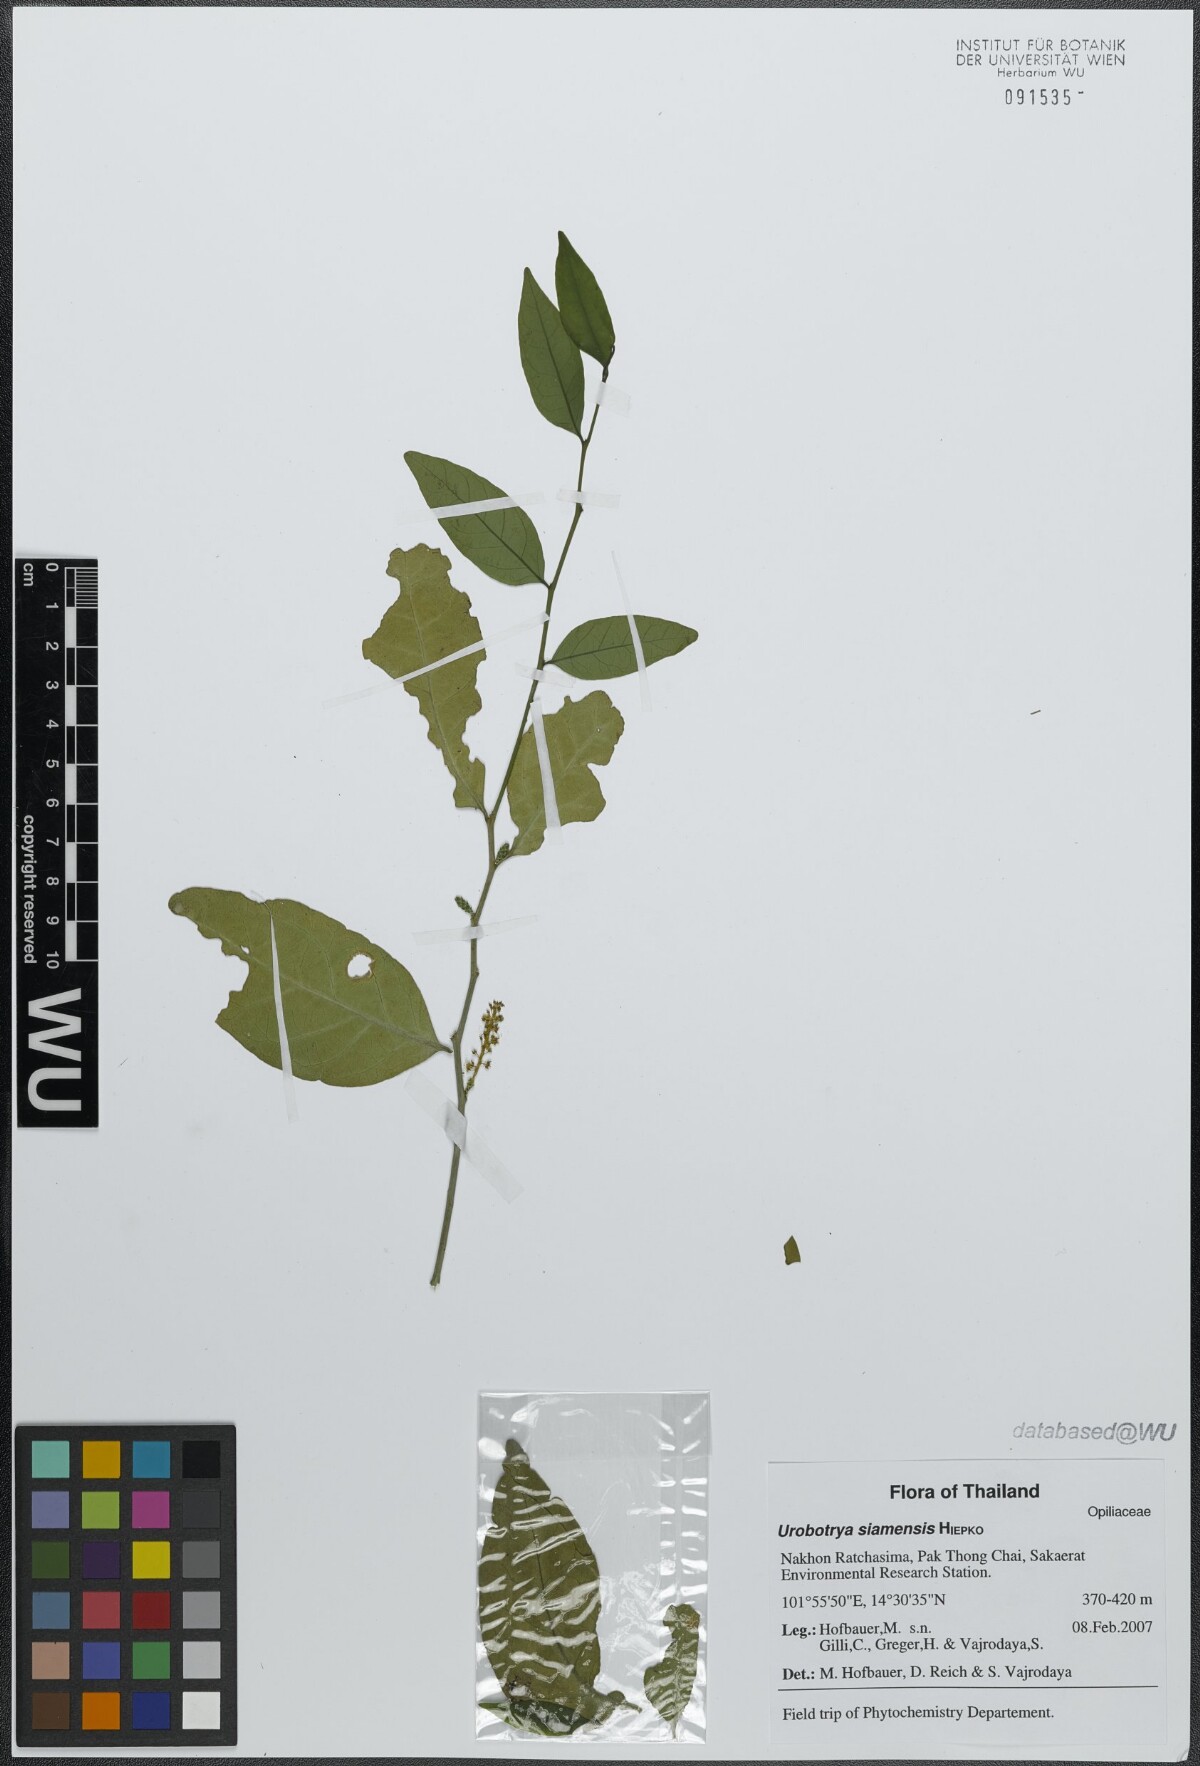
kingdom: Plantae
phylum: Tracheophyta
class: Magnoliopsida
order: Santalales
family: Opiliaceae
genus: Urobotrya
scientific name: Urobotrya siamensis
